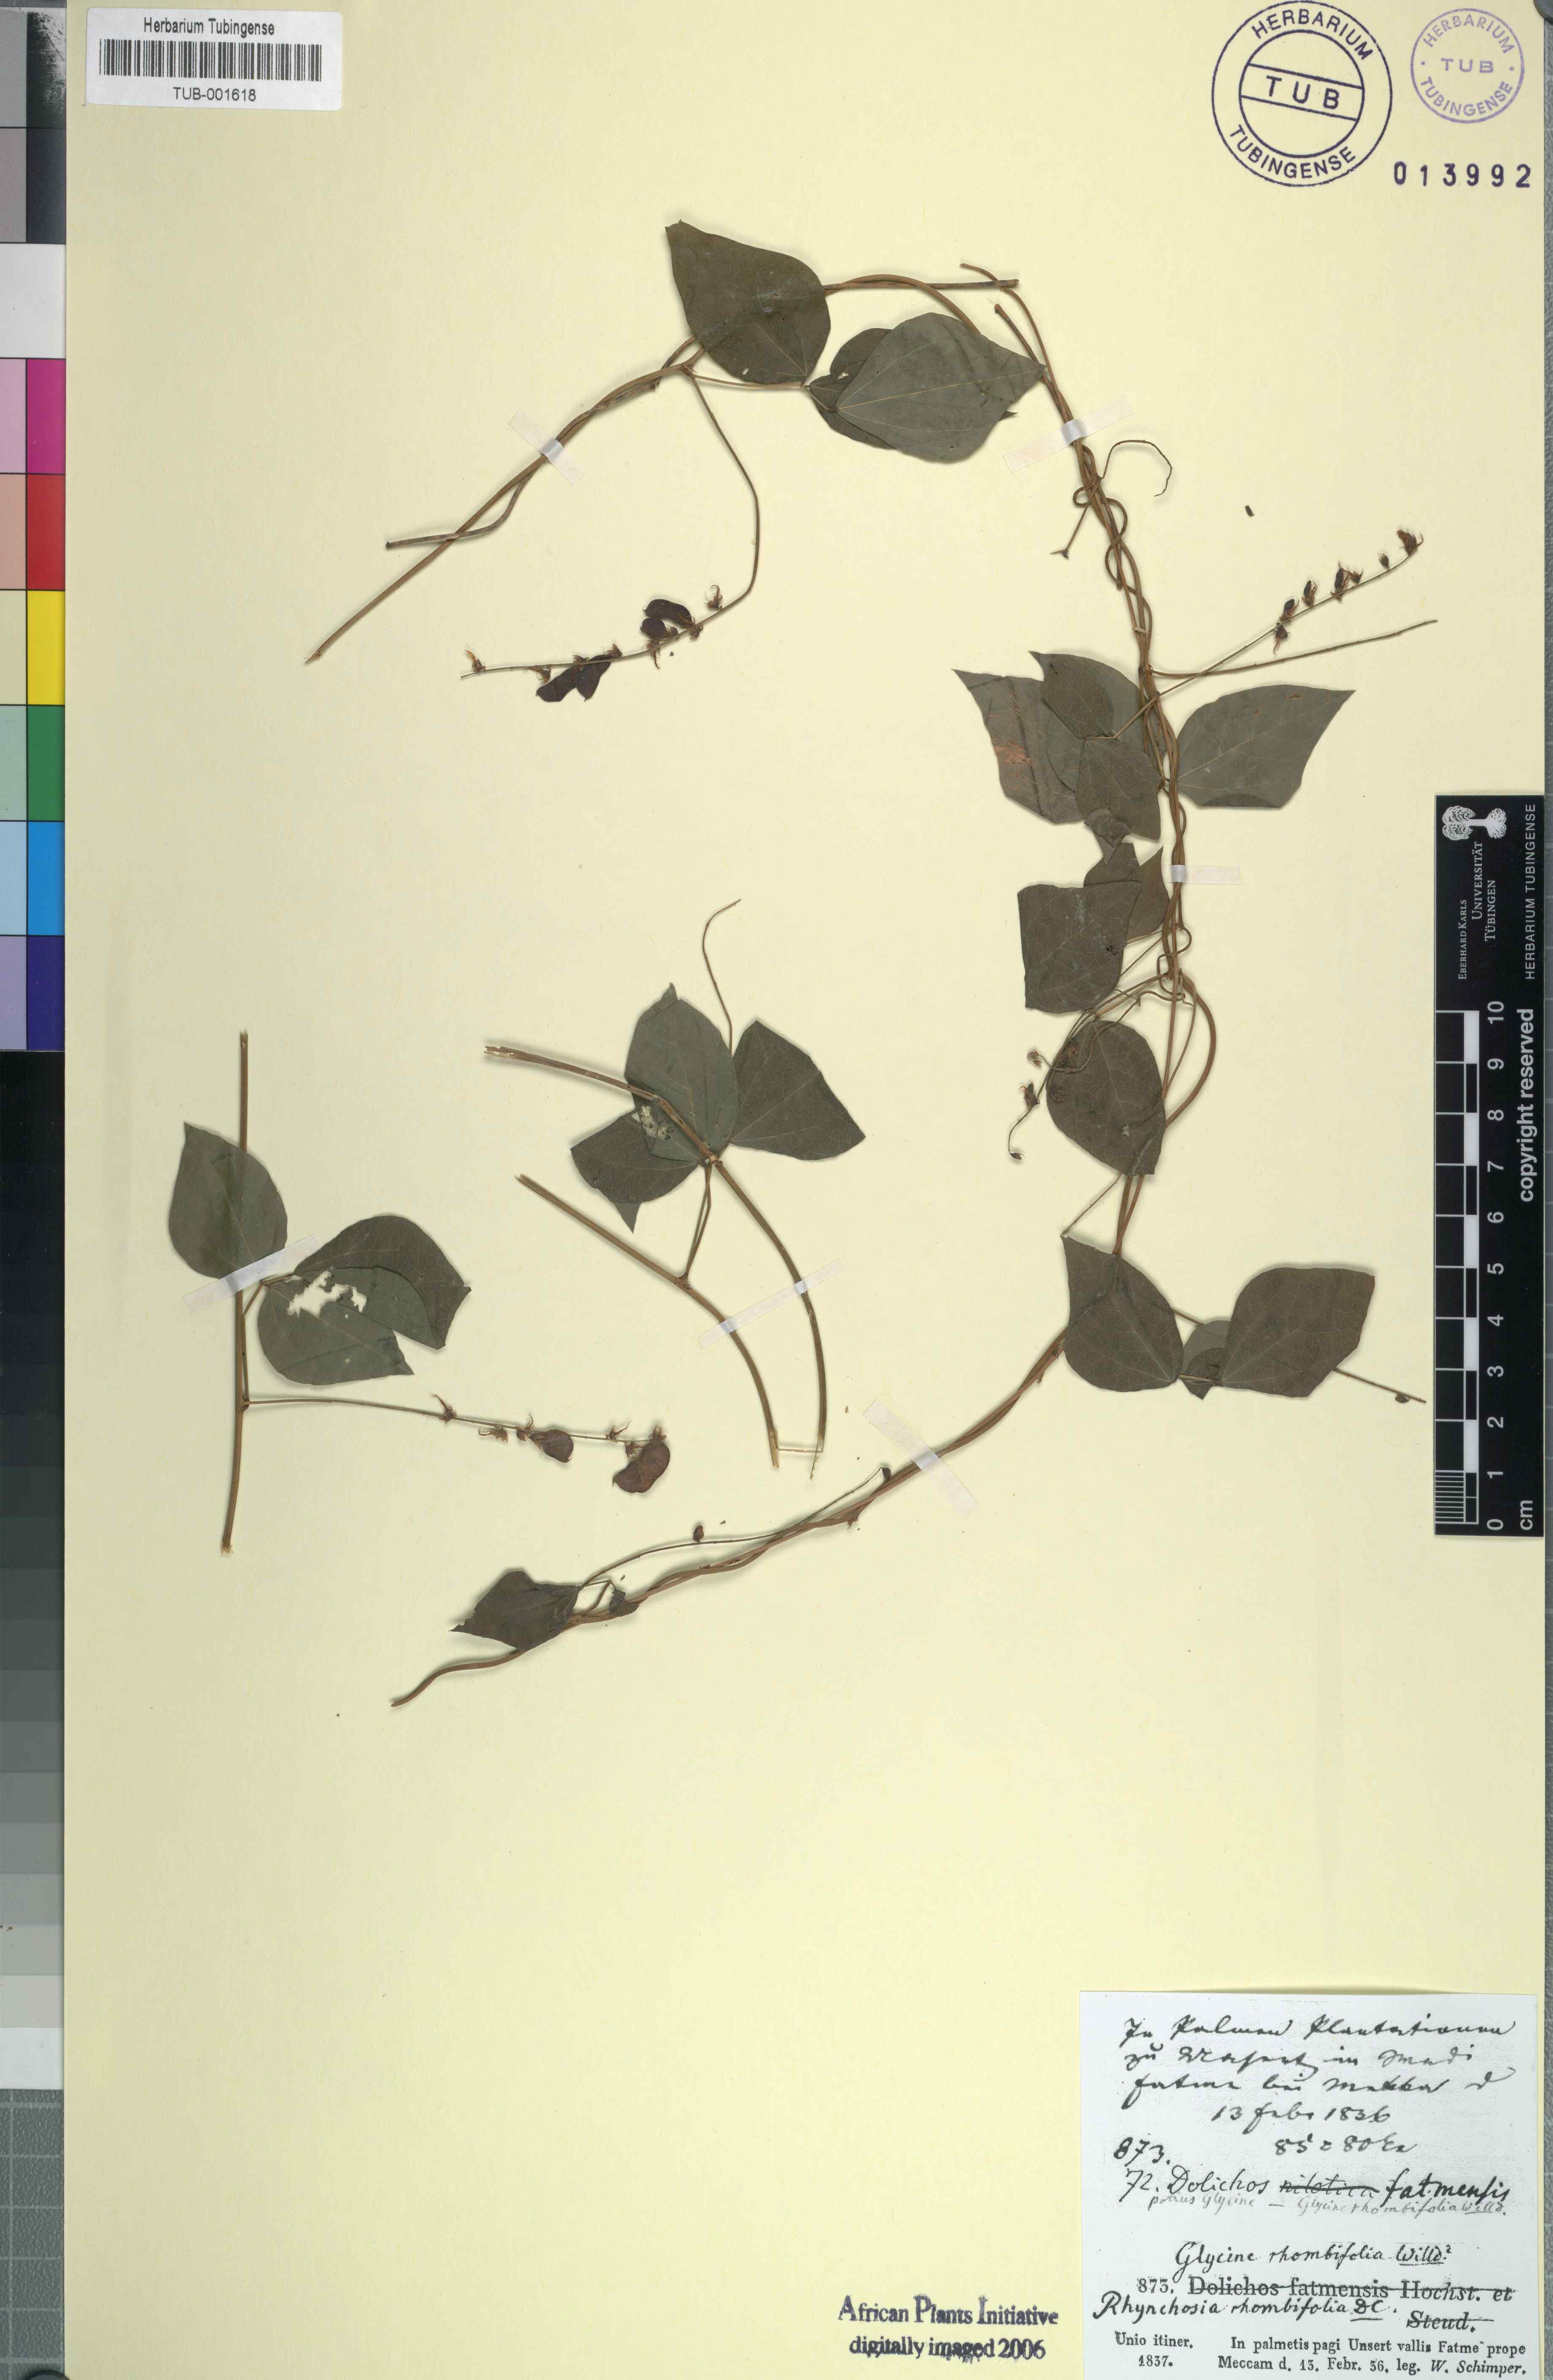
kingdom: Plantae
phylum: Tracheophyta
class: Magnoliopsida
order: Fabales
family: Fabaceae
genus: Rhynchosia
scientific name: Rhynchosia minima
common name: Least snoutbean
